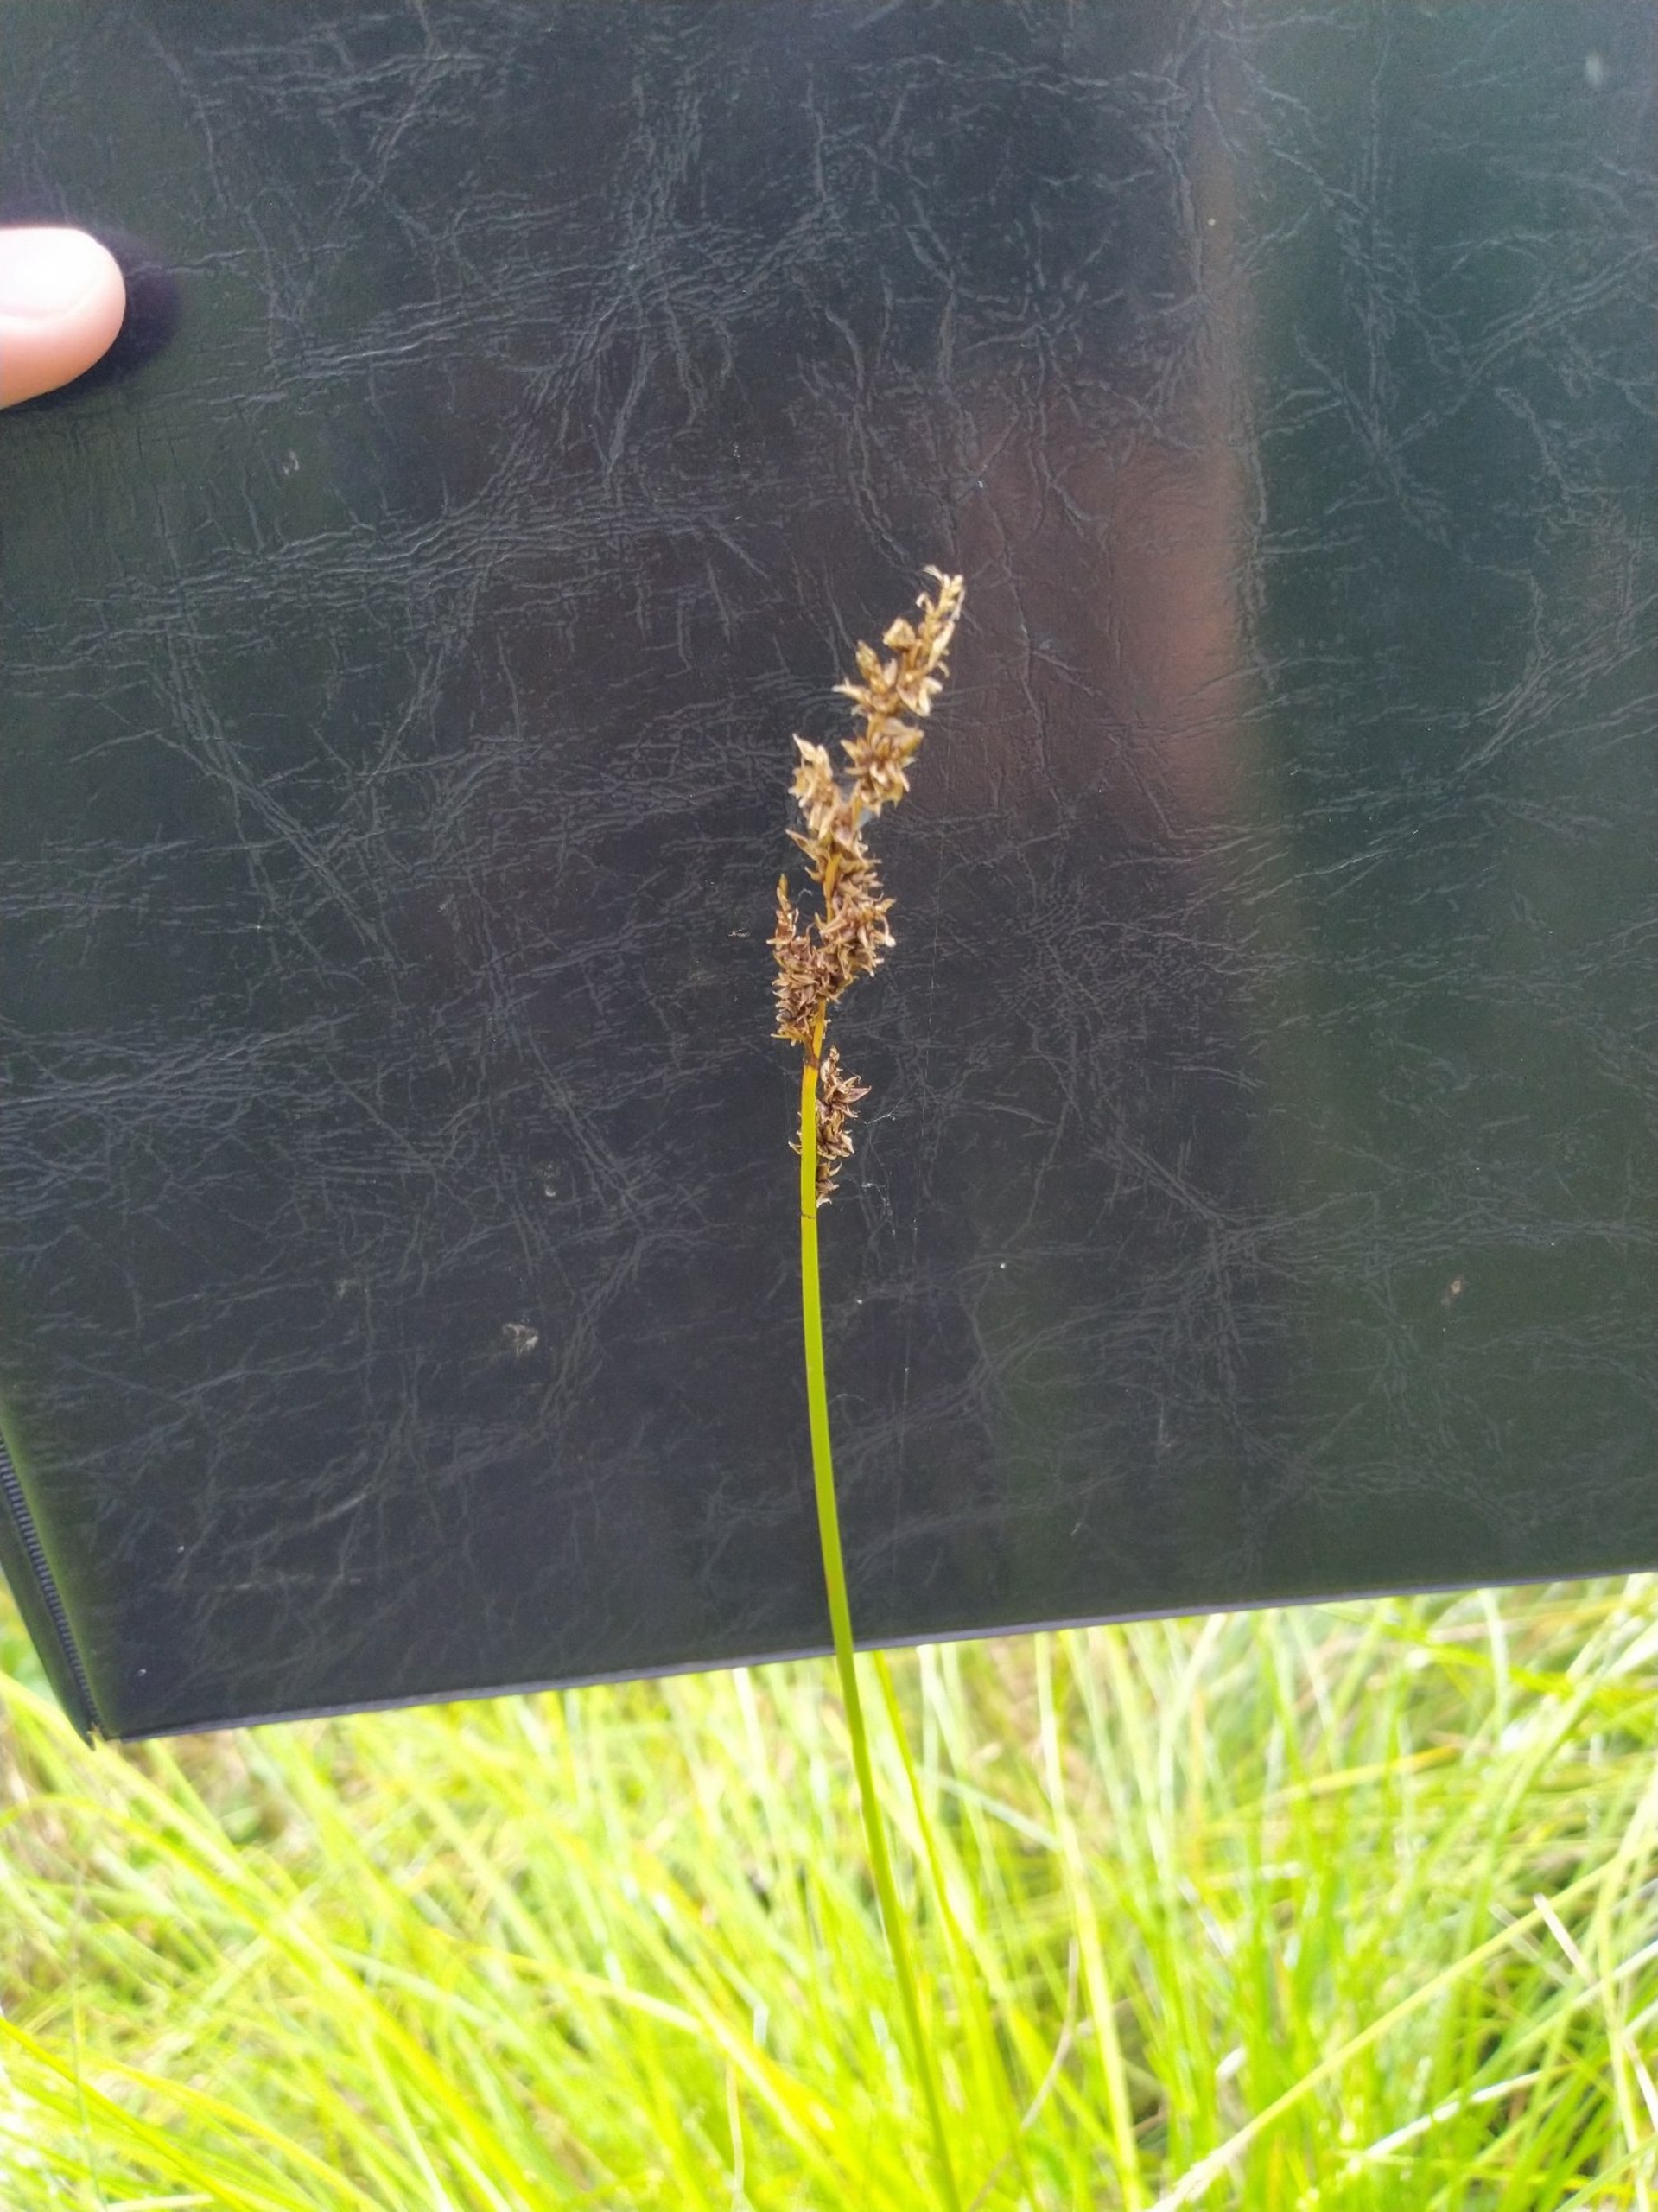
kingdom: Plantae
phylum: Tracheophyta
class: Liliopsida
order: Poales
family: Cyperaceae
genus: Carex
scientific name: Carex paniculata
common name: Top-star
